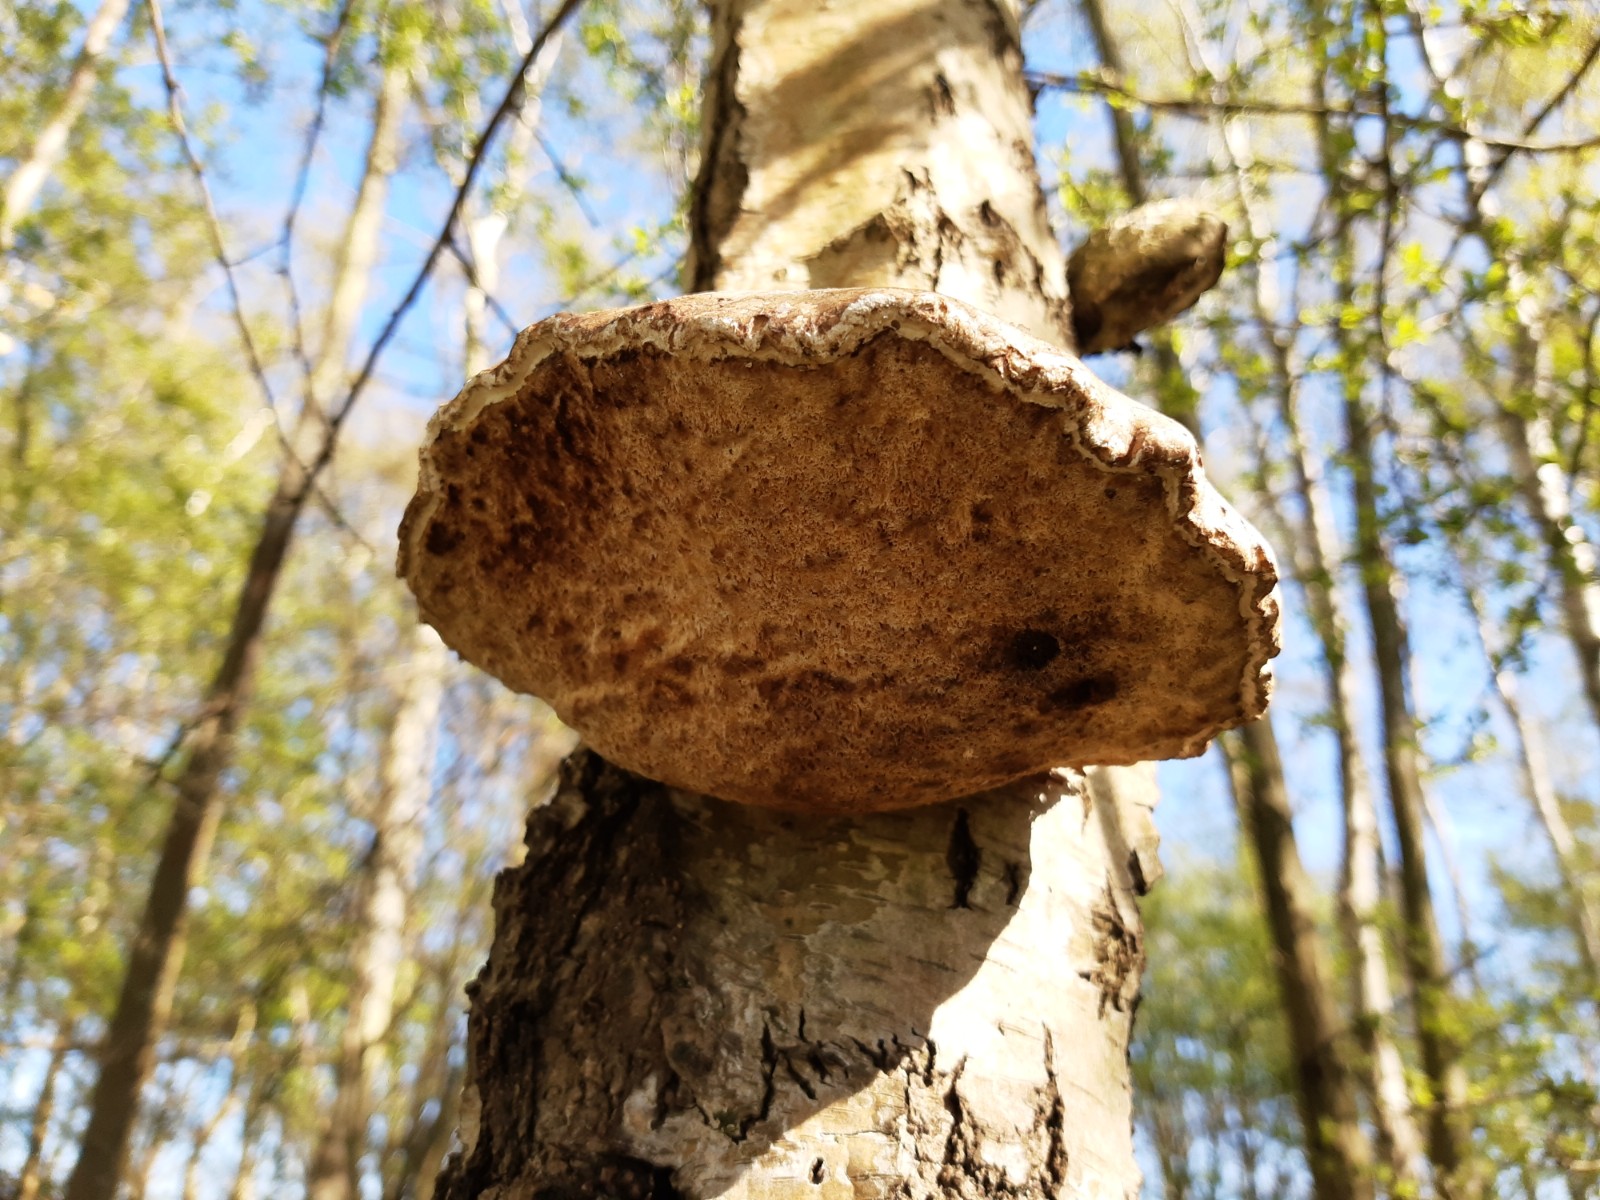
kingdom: Fungi
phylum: Basidiomycota
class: Agaricomycetes
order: Polyporales
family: Fomitopsidaceae
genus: Fomitopsis
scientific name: Fomitopsis betulina
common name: birkeporesvamp
